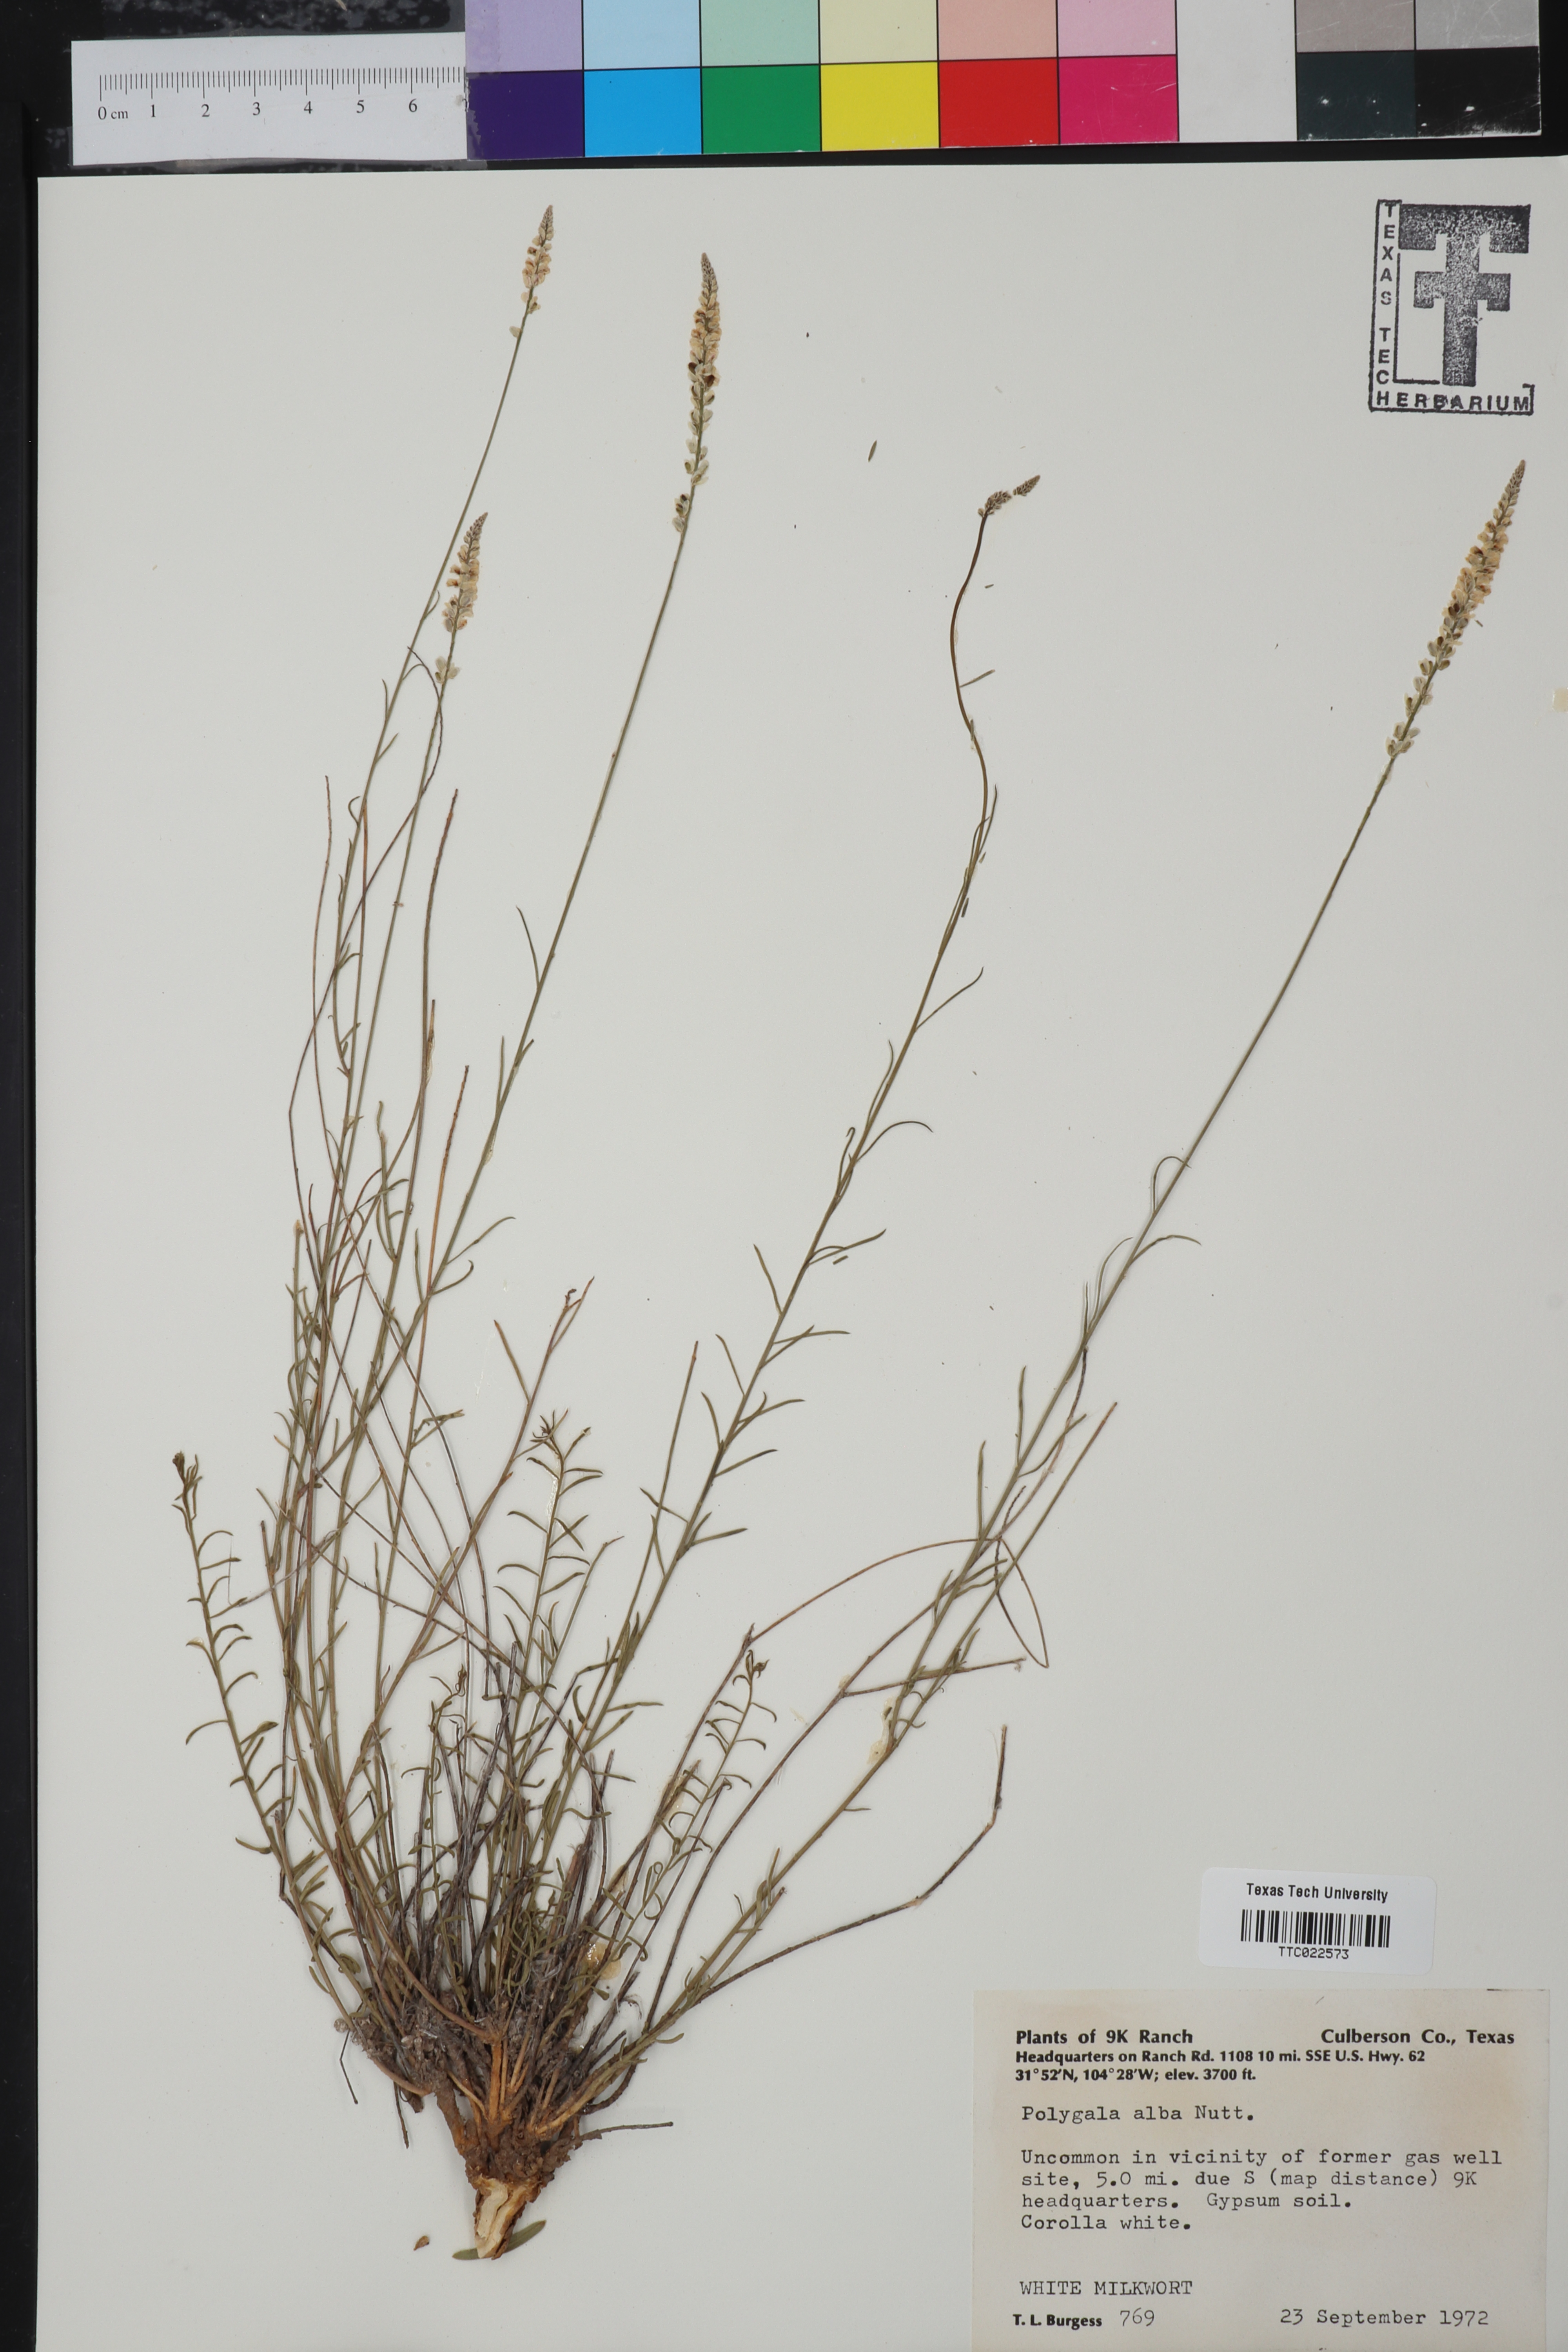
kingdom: Plantae
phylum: Tracheophyta
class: Magnoliopsida
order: Fabales
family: Polygalaceae
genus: Polygala
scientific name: Polygala alba
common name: White milkwort
